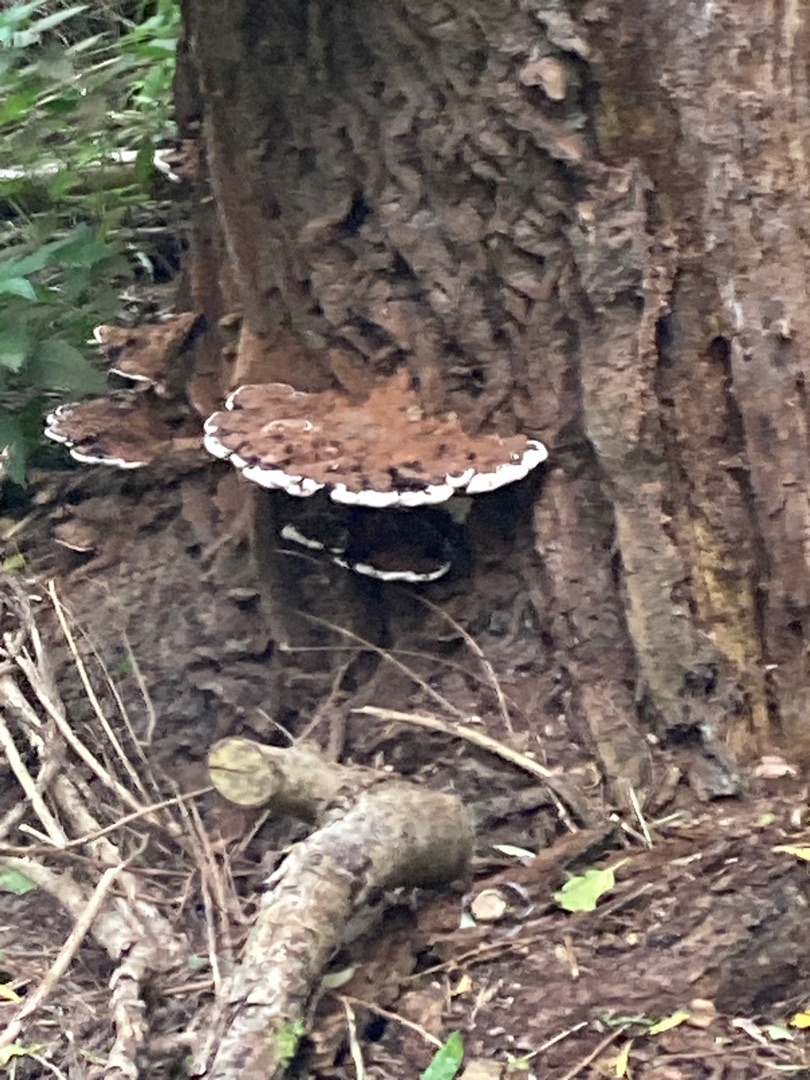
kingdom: Fungi
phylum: Basidiomycota
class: Agaricomycetes
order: Polyporales
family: Polyporaceae
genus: Ganoderma
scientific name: Ganoderma applanatum
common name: Flad lakporesvamp
